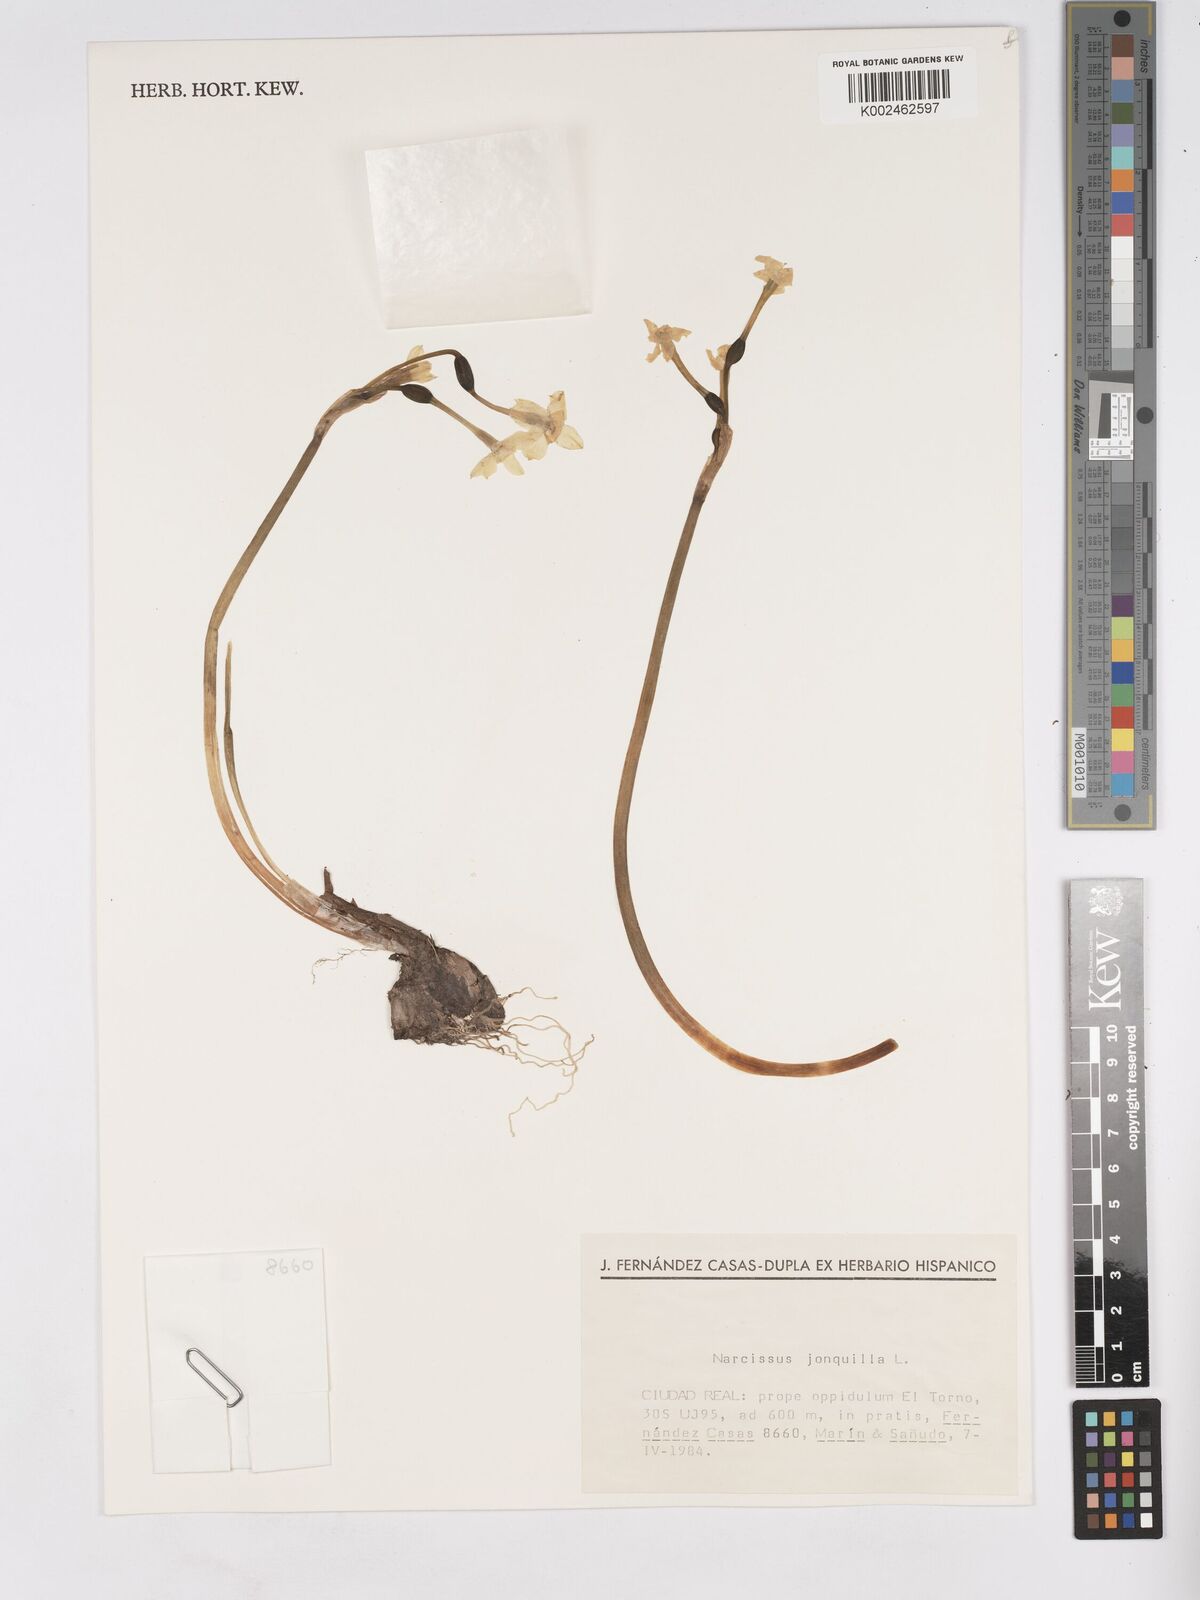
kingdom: Plantae
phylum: Tracheophyta
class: Liliopsida
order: Asparagales
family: Amaryllidaceae
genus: Narcissus
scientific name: Narcissus jonquilla
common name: Jonquil
